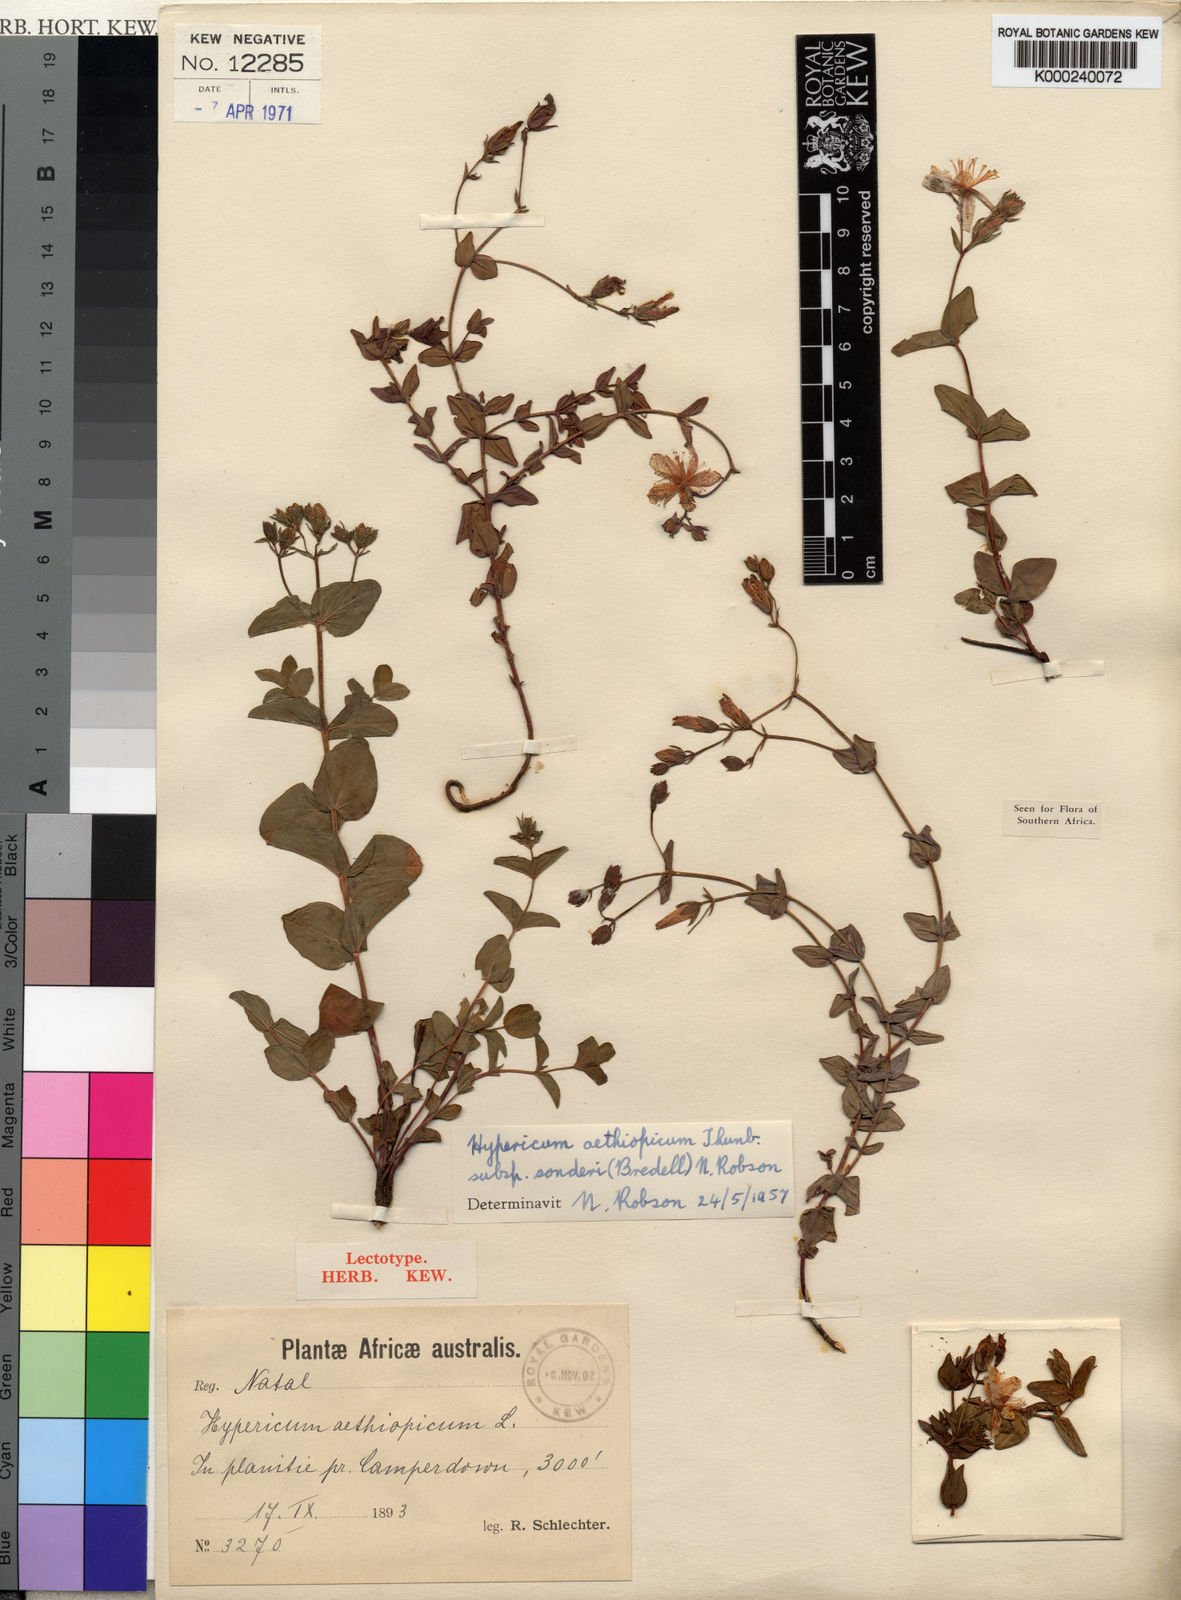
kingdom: Plantae
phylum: Tracheophyta
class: Magnoliopsida
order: Malpighiales
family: Hypericaceae
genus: Hypericum
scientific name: Hypericum aethiopicum
